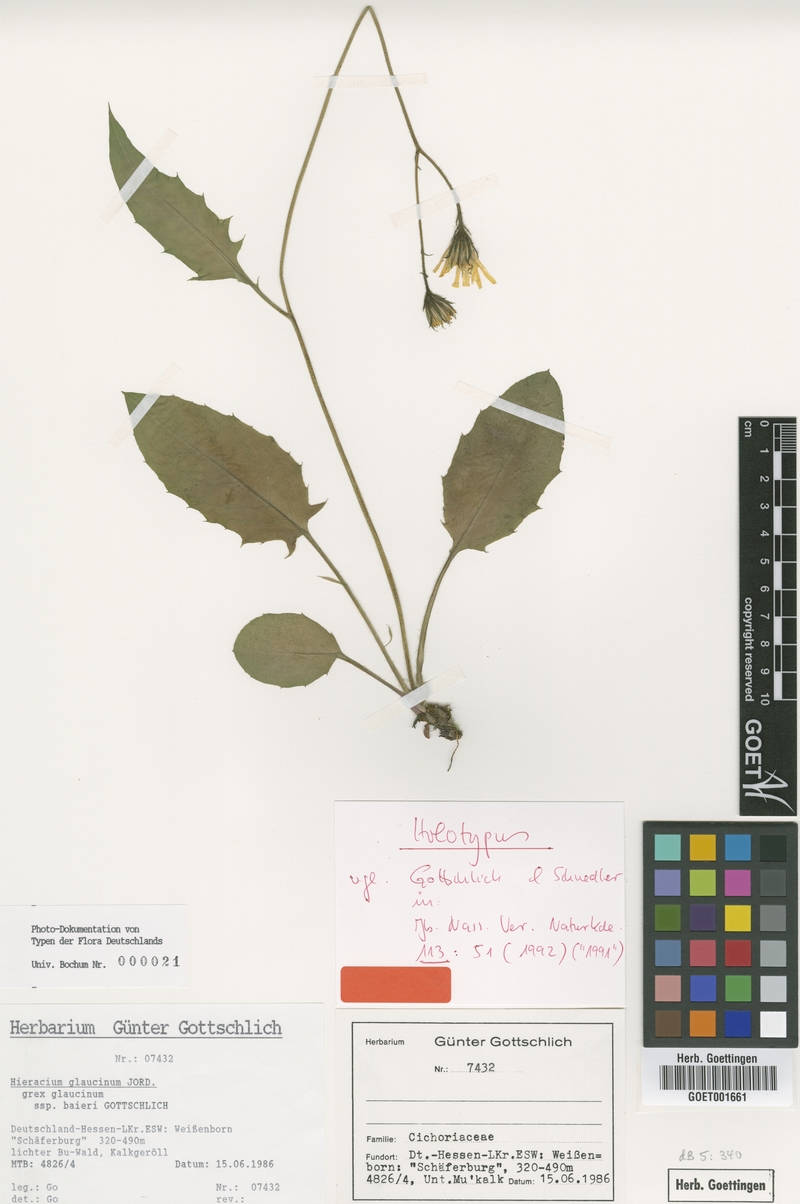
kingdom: Plantae
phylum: Tracheophyta
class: Magnoliopsida
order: Asterales
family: Asteraceae
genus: Hieracium
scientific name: Hieracium glaucinum
